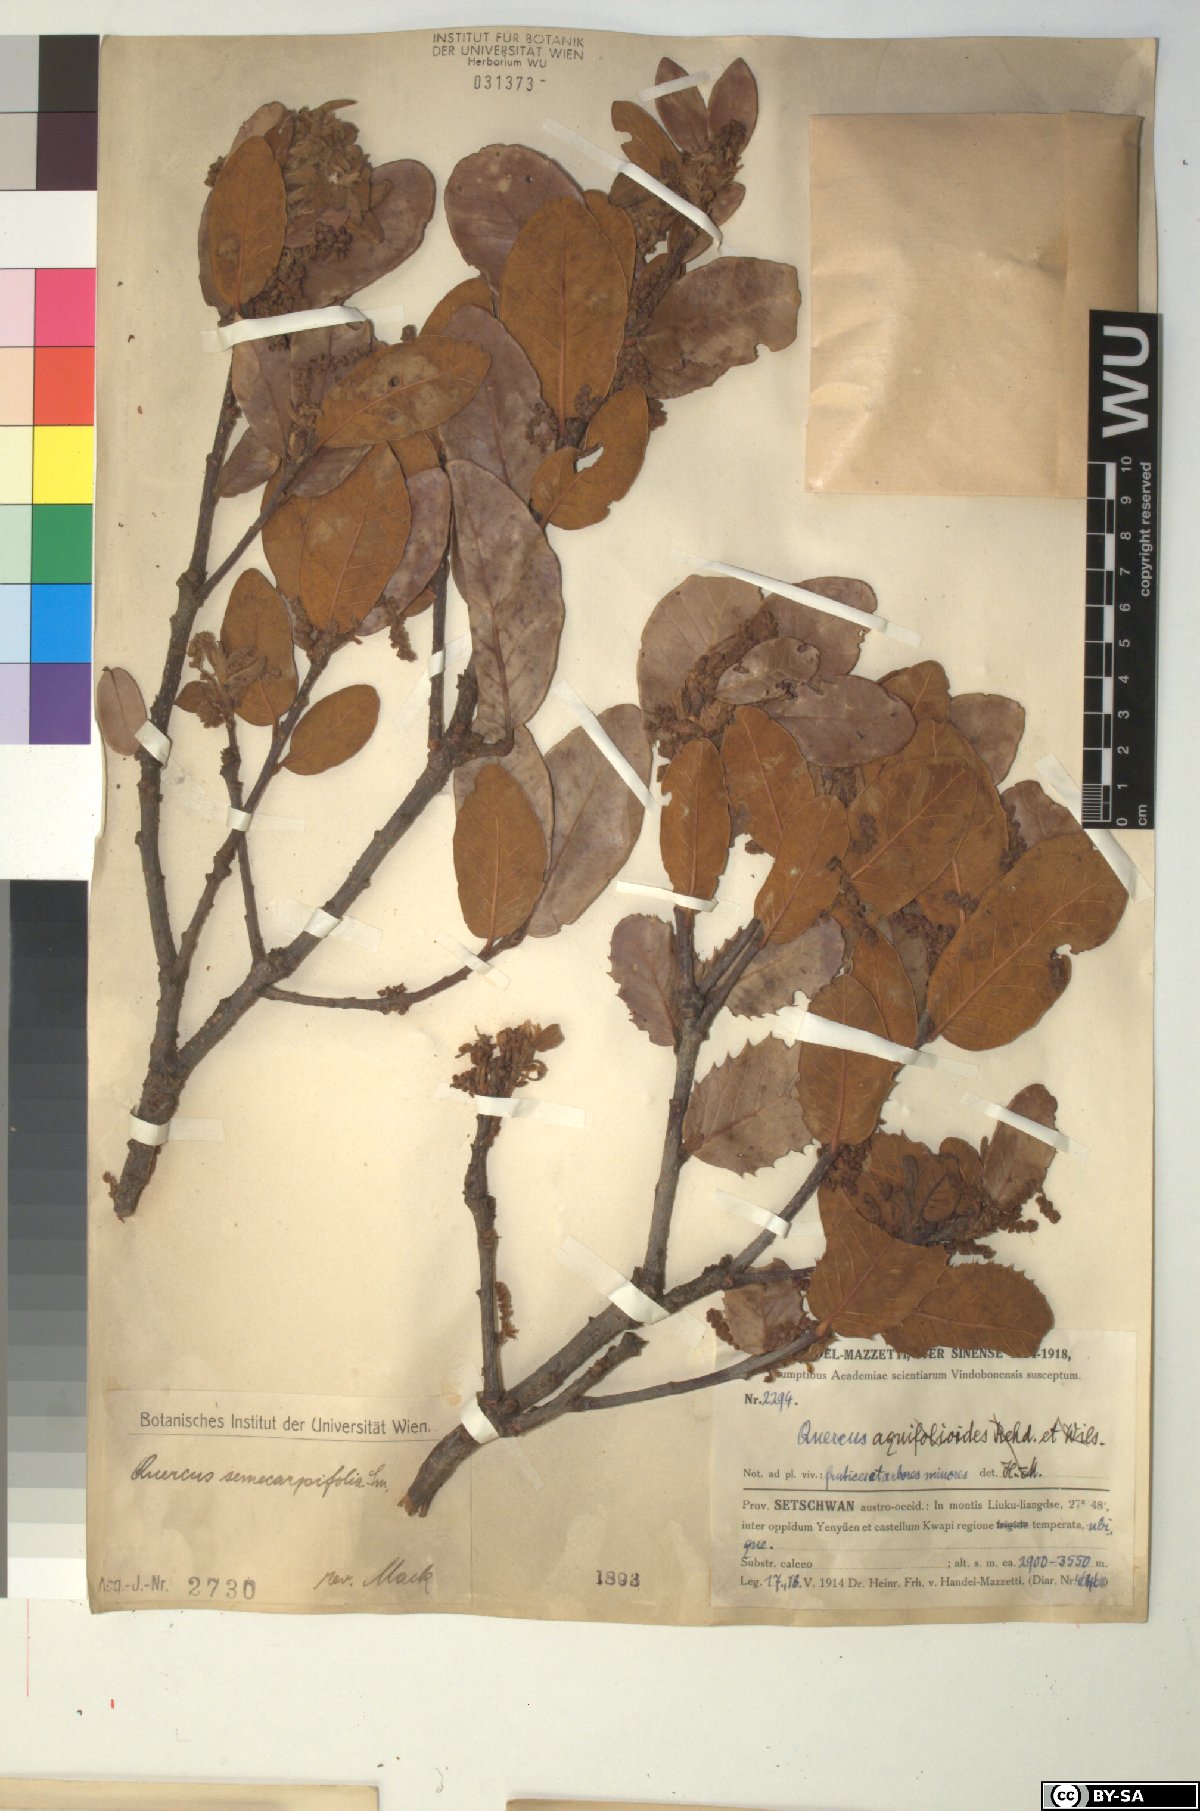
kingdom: Plantae
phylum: Tracheophyta
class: Magnoliopsida
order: Fagales
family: Fagaceae
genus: Quercus
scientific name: Quercus semecarpifolia
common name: Brown oak
